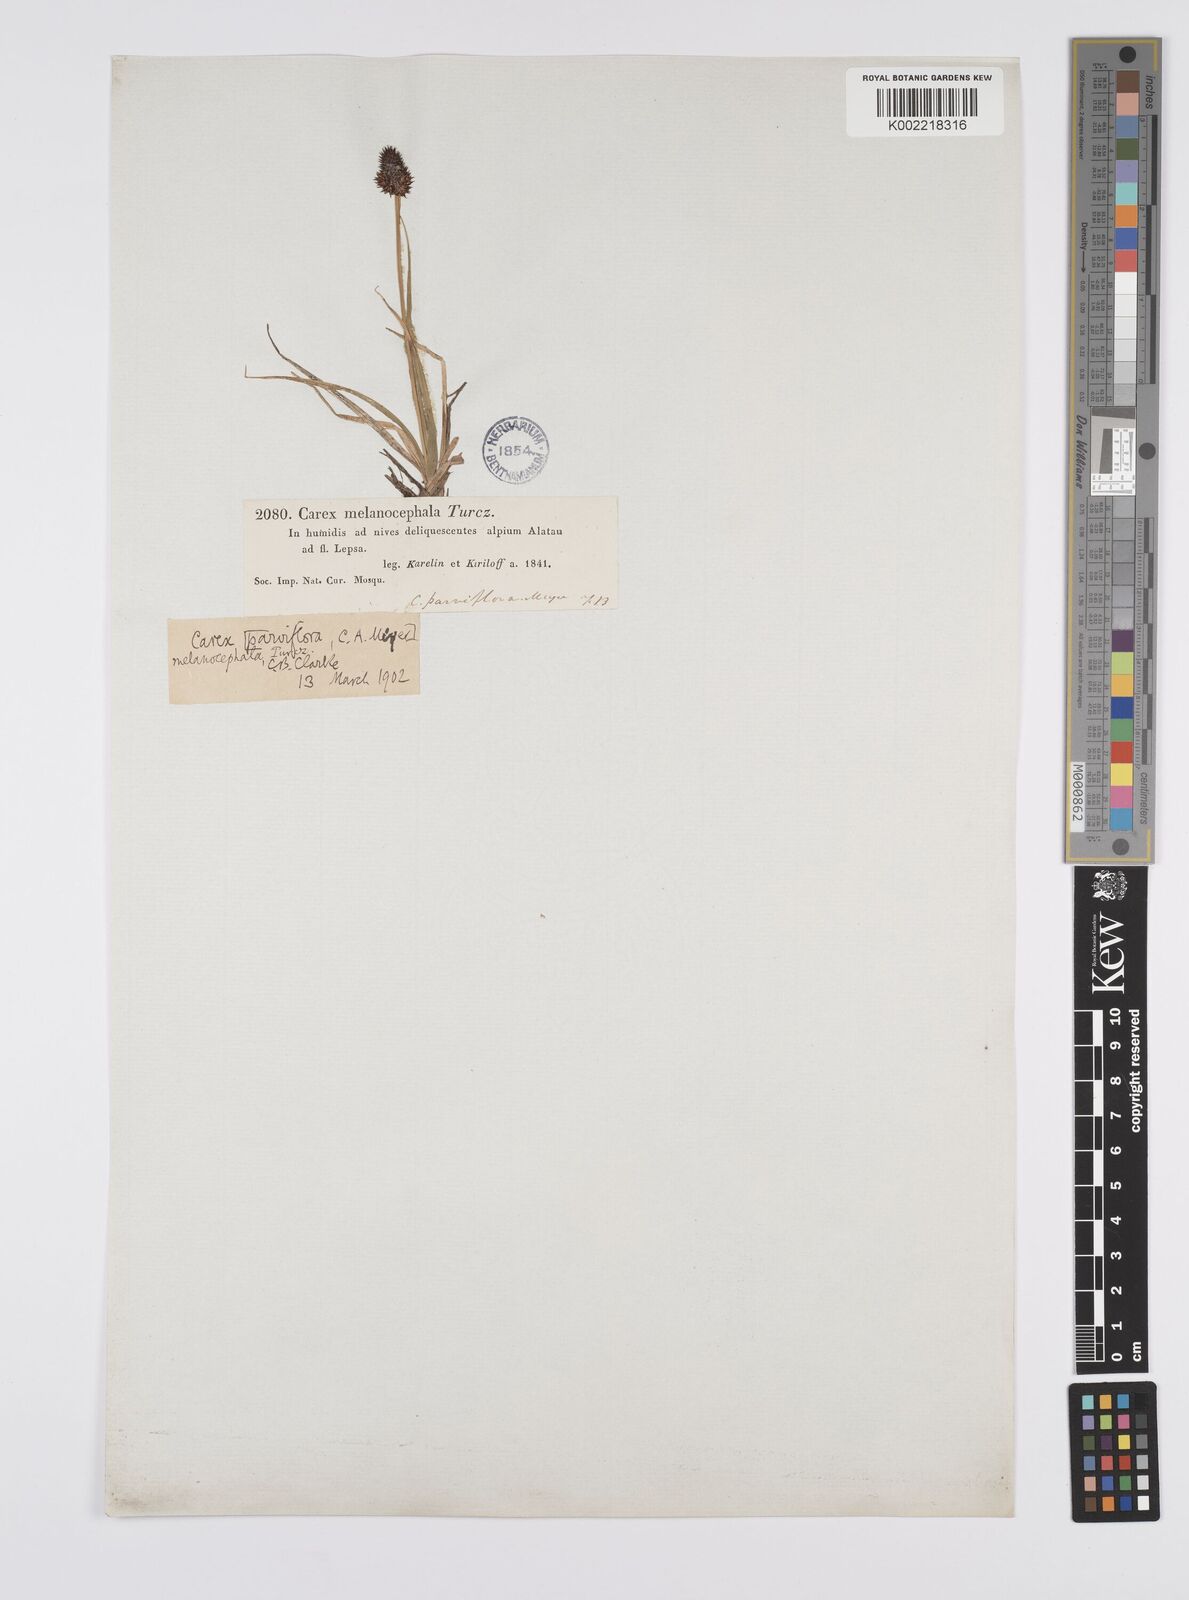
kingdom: Plantae
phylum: Tracheophyta
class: Liliopsida
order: Poales
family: Cyperaceae
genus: Carex
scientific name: Carex melanocephala
